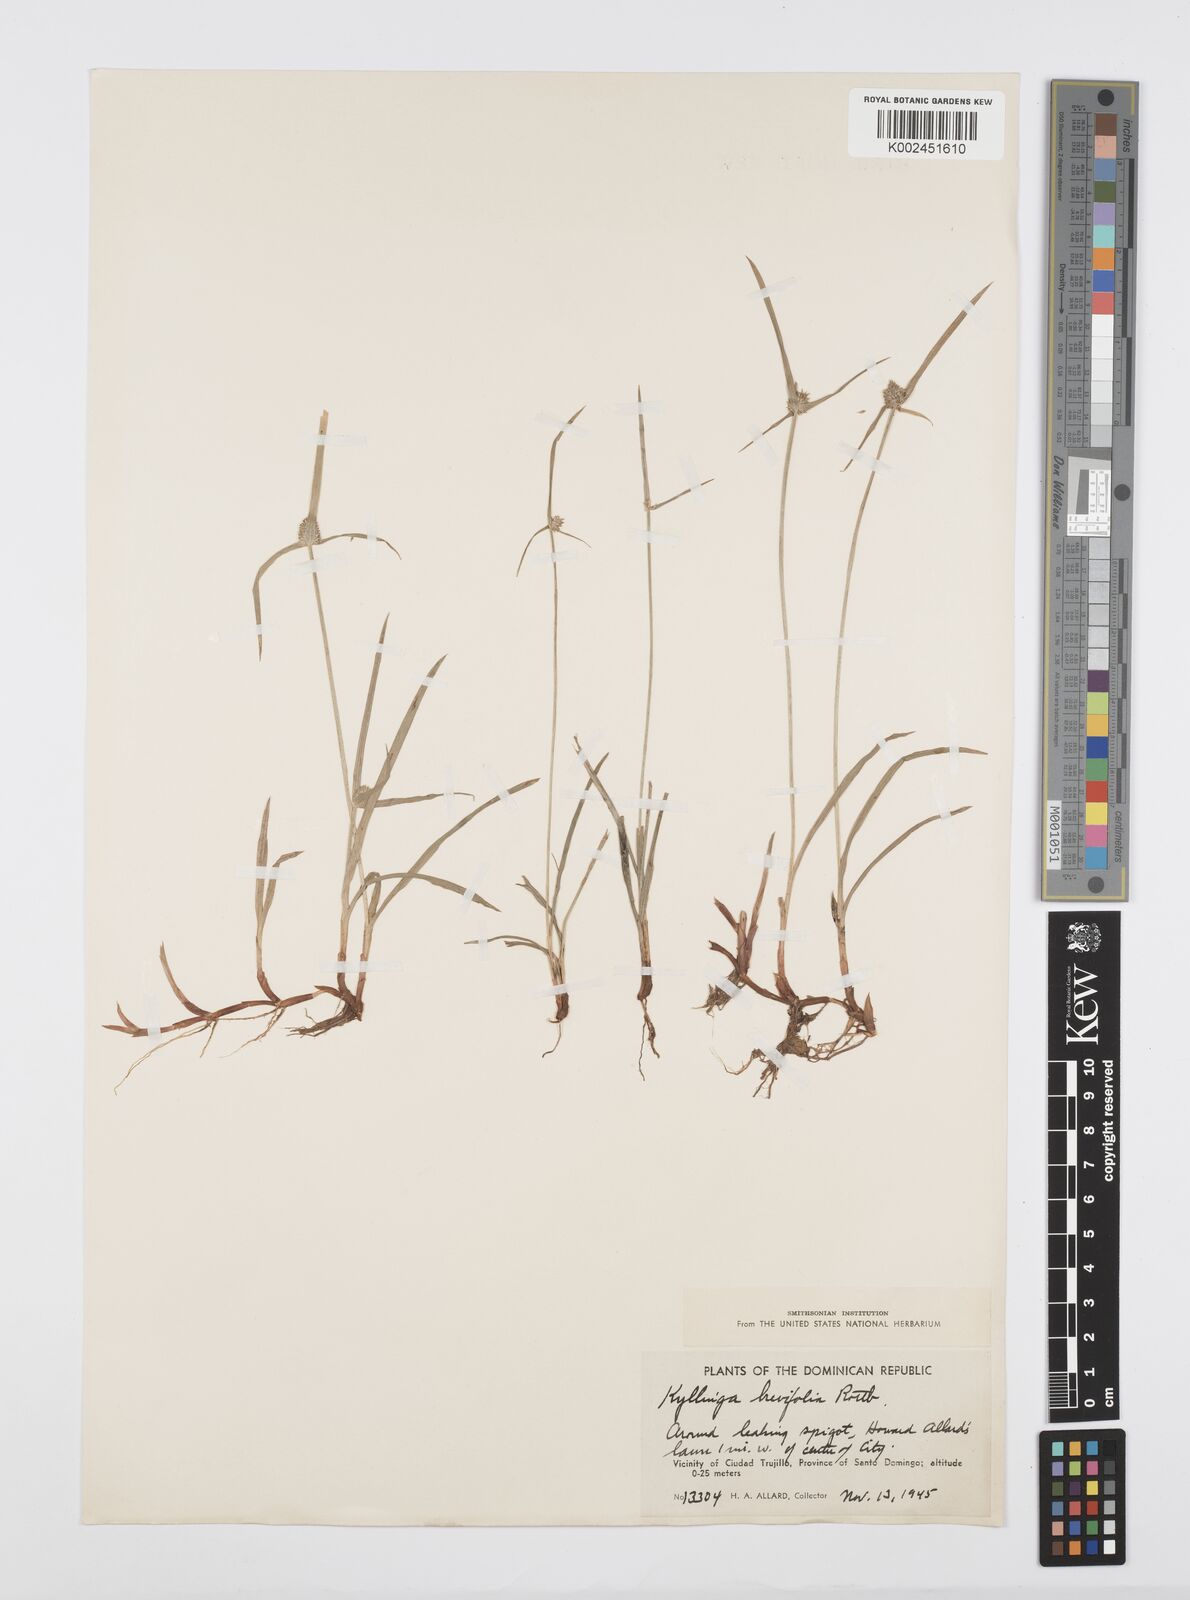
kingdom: Plantae
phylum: Tracheophyta
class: Liliopsida
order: Poales
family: Cyperaceae
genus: Cyperus
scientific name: Cyperus brevifolius
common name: Globe kyllinga
